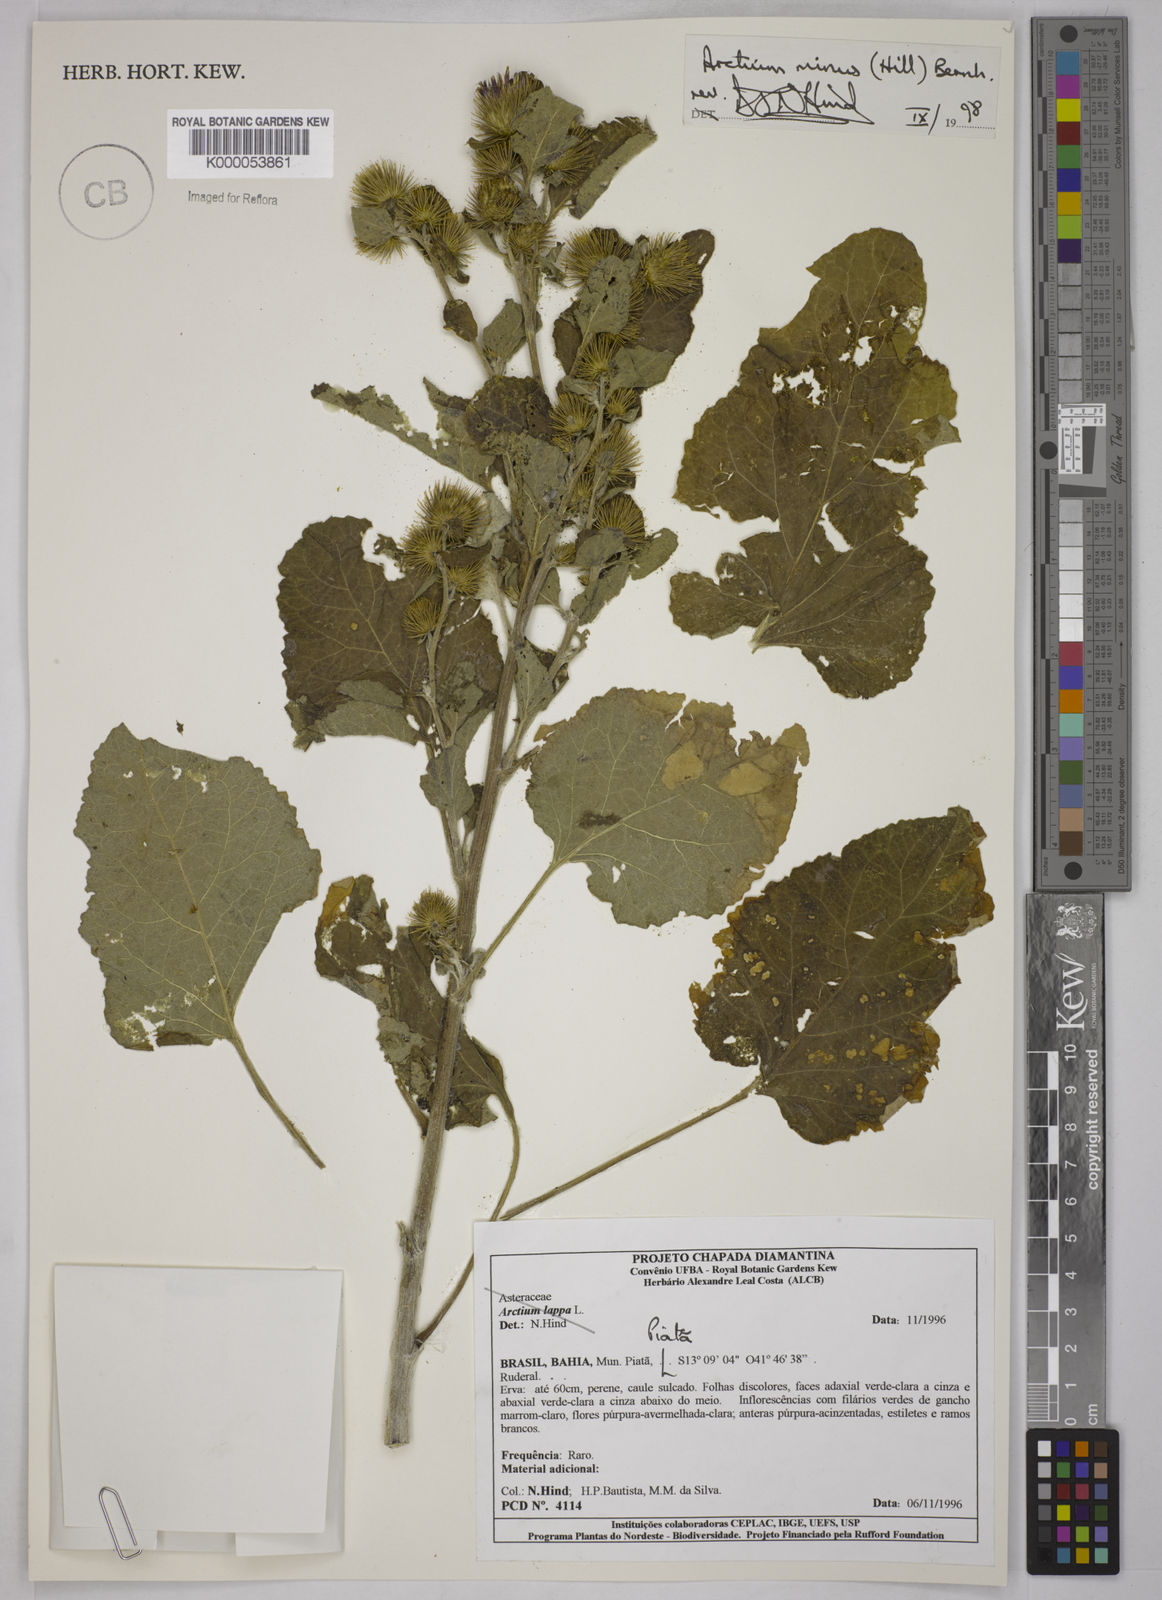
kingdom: Plantae
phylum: Tracheophyta
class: Magnoliopsida
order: Asterales
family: Asteraceae
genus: Arctium
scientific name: Arctium minus
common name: Lesser burdock
